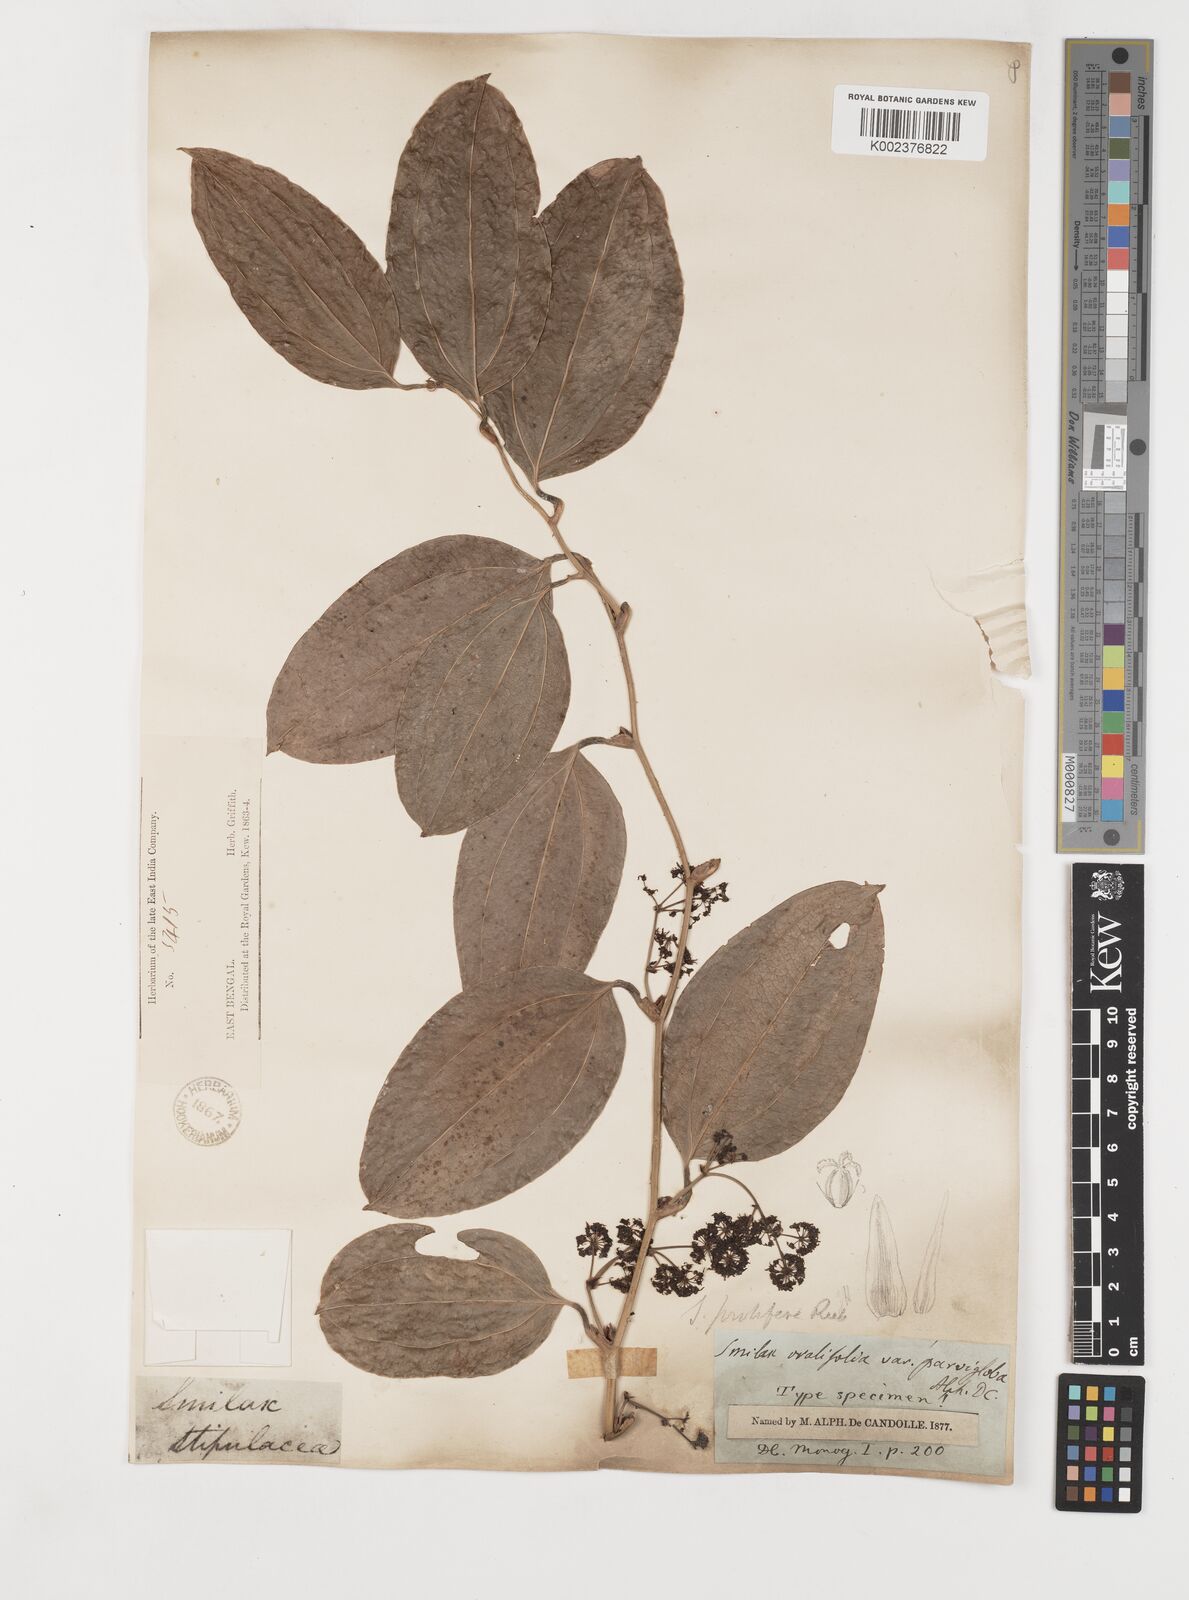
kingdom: Plantae
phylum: Tracheophyta
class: Liliopsida
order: Liliales
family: Smilacaceae
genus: Smilax
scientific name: Smilax prolifera
